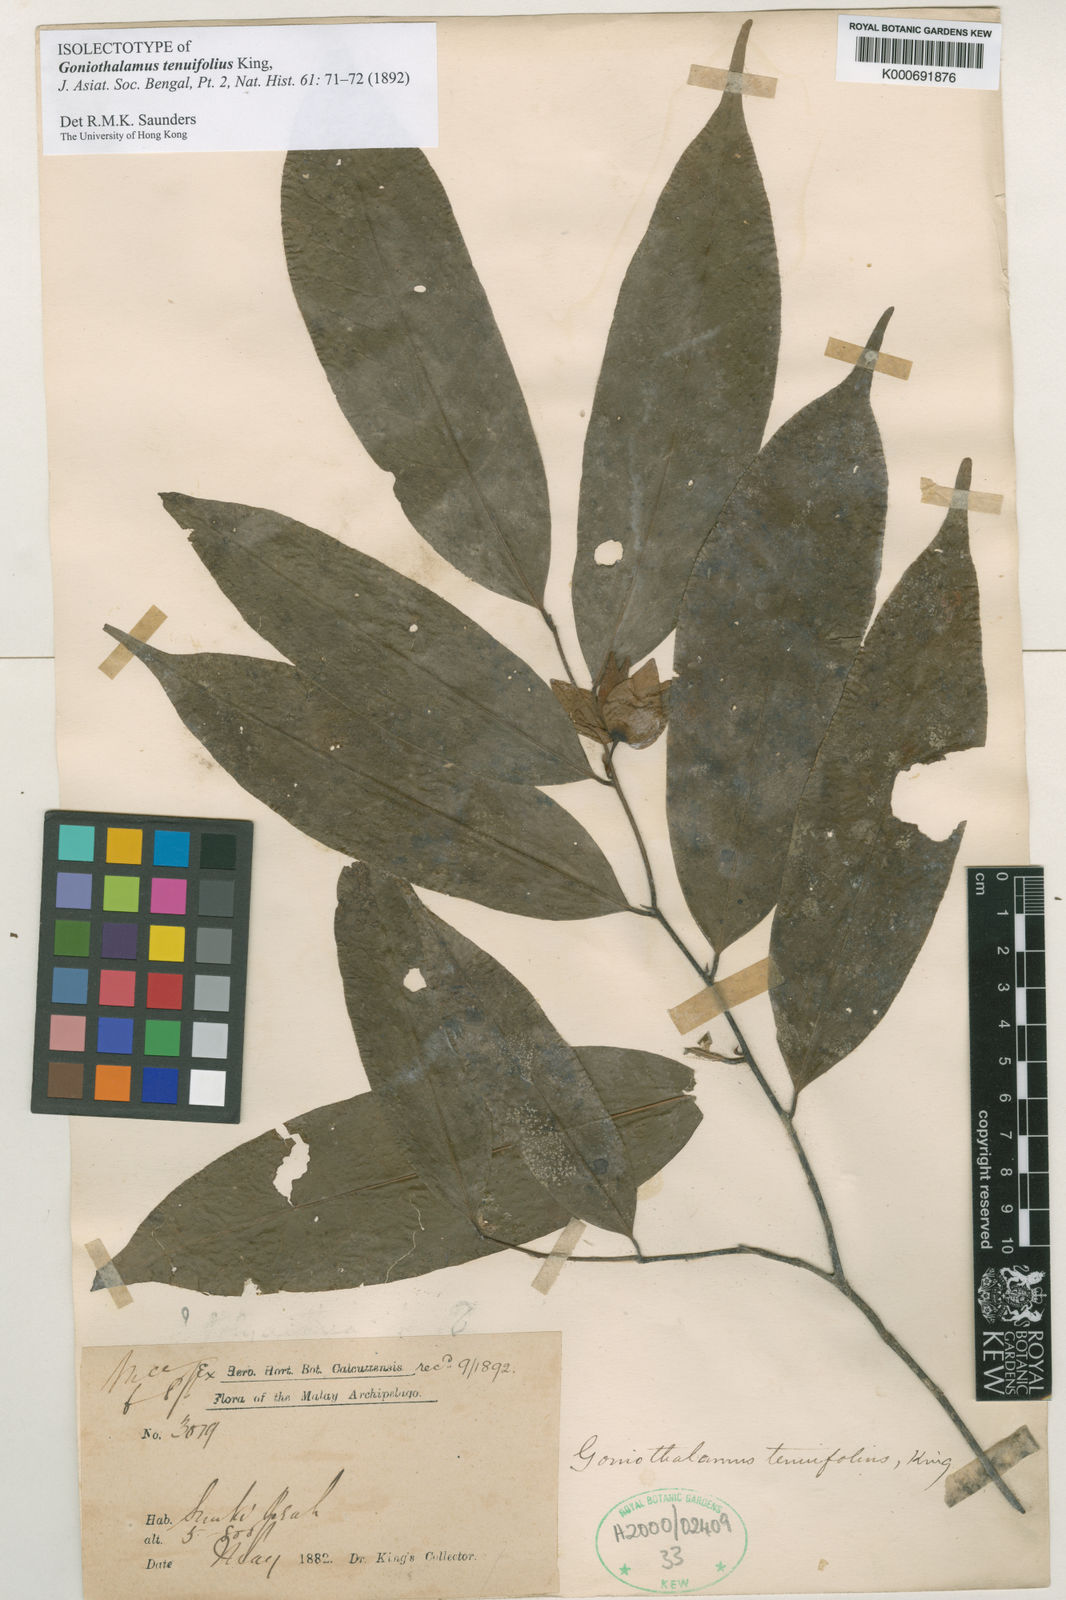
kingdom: Plantae
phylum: Tracheophyta
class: Magnoliopsida
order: Magnoliales
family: Annonaceae
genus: Goniothalamus
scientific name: Goniothalamus tenuifolius
